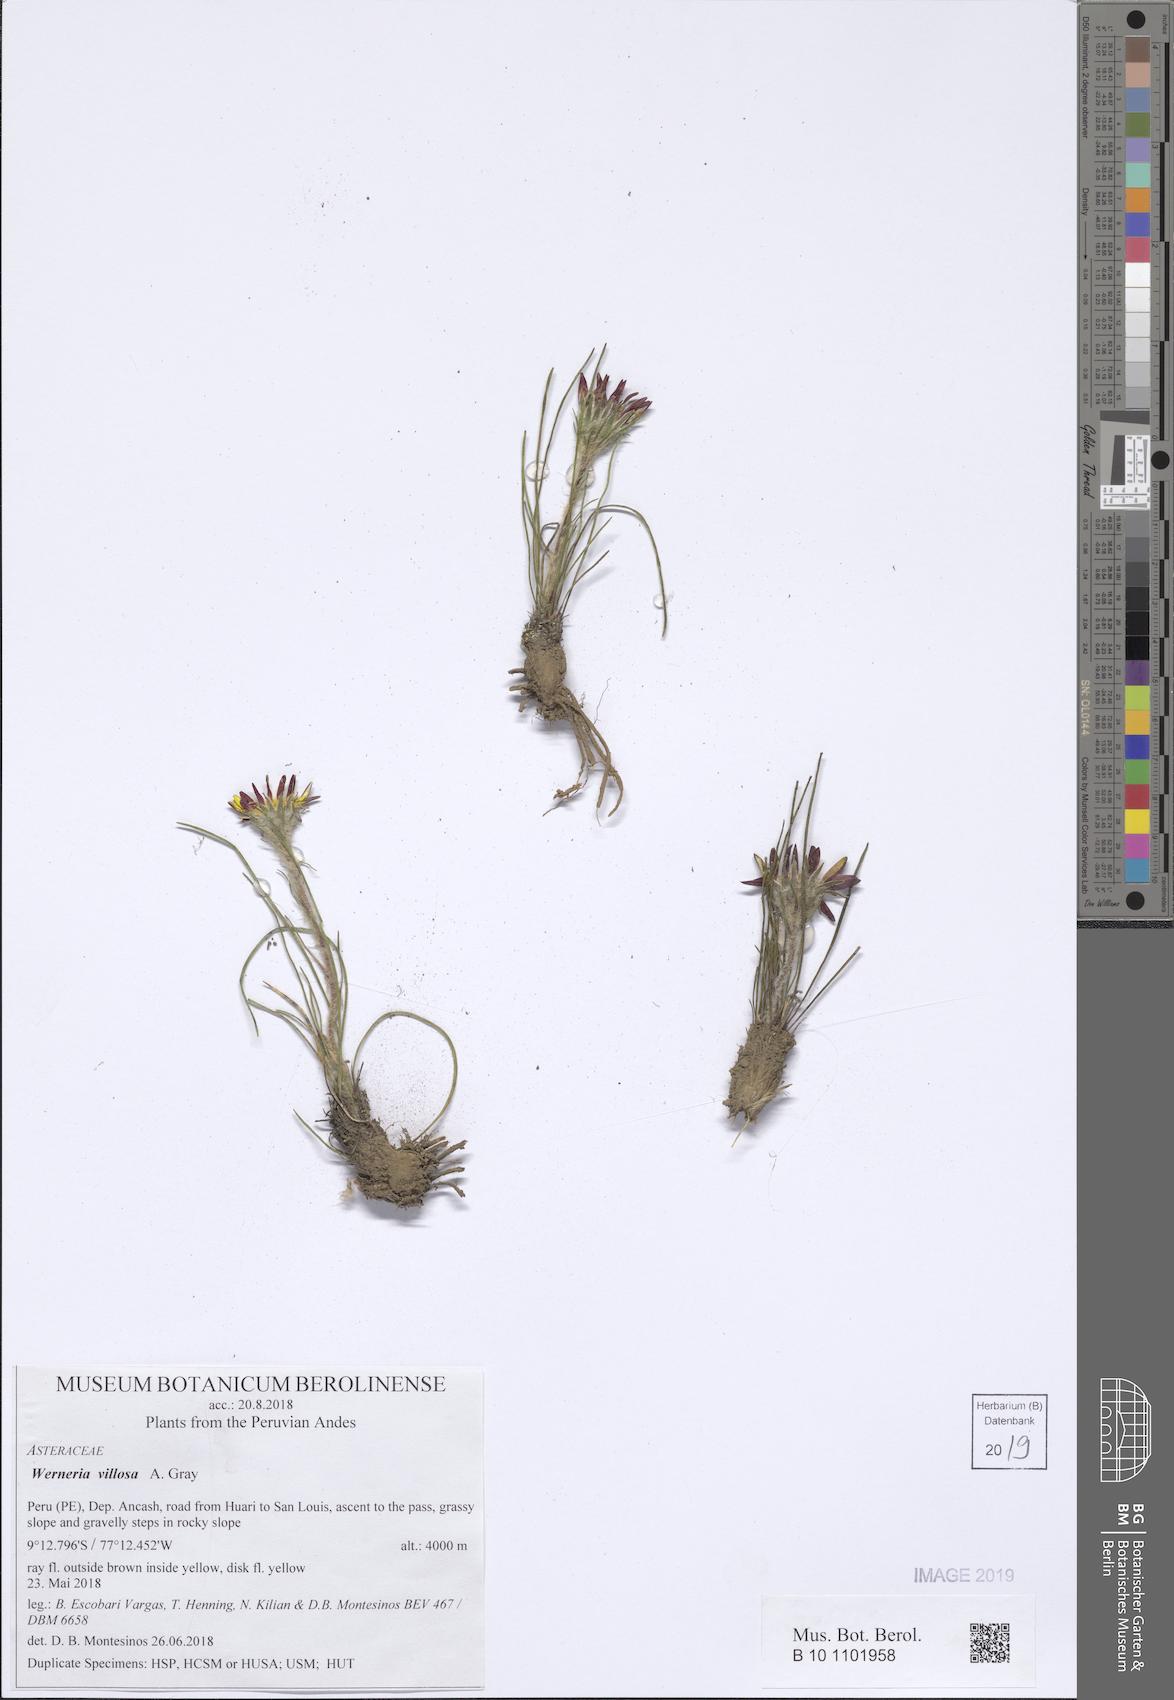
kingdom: Plantae
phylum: Tracheophyta
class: Magnoliopsida
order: Asterales
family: Asteraceae
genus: Rockhausenia
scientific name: Rockhausenia villosa
